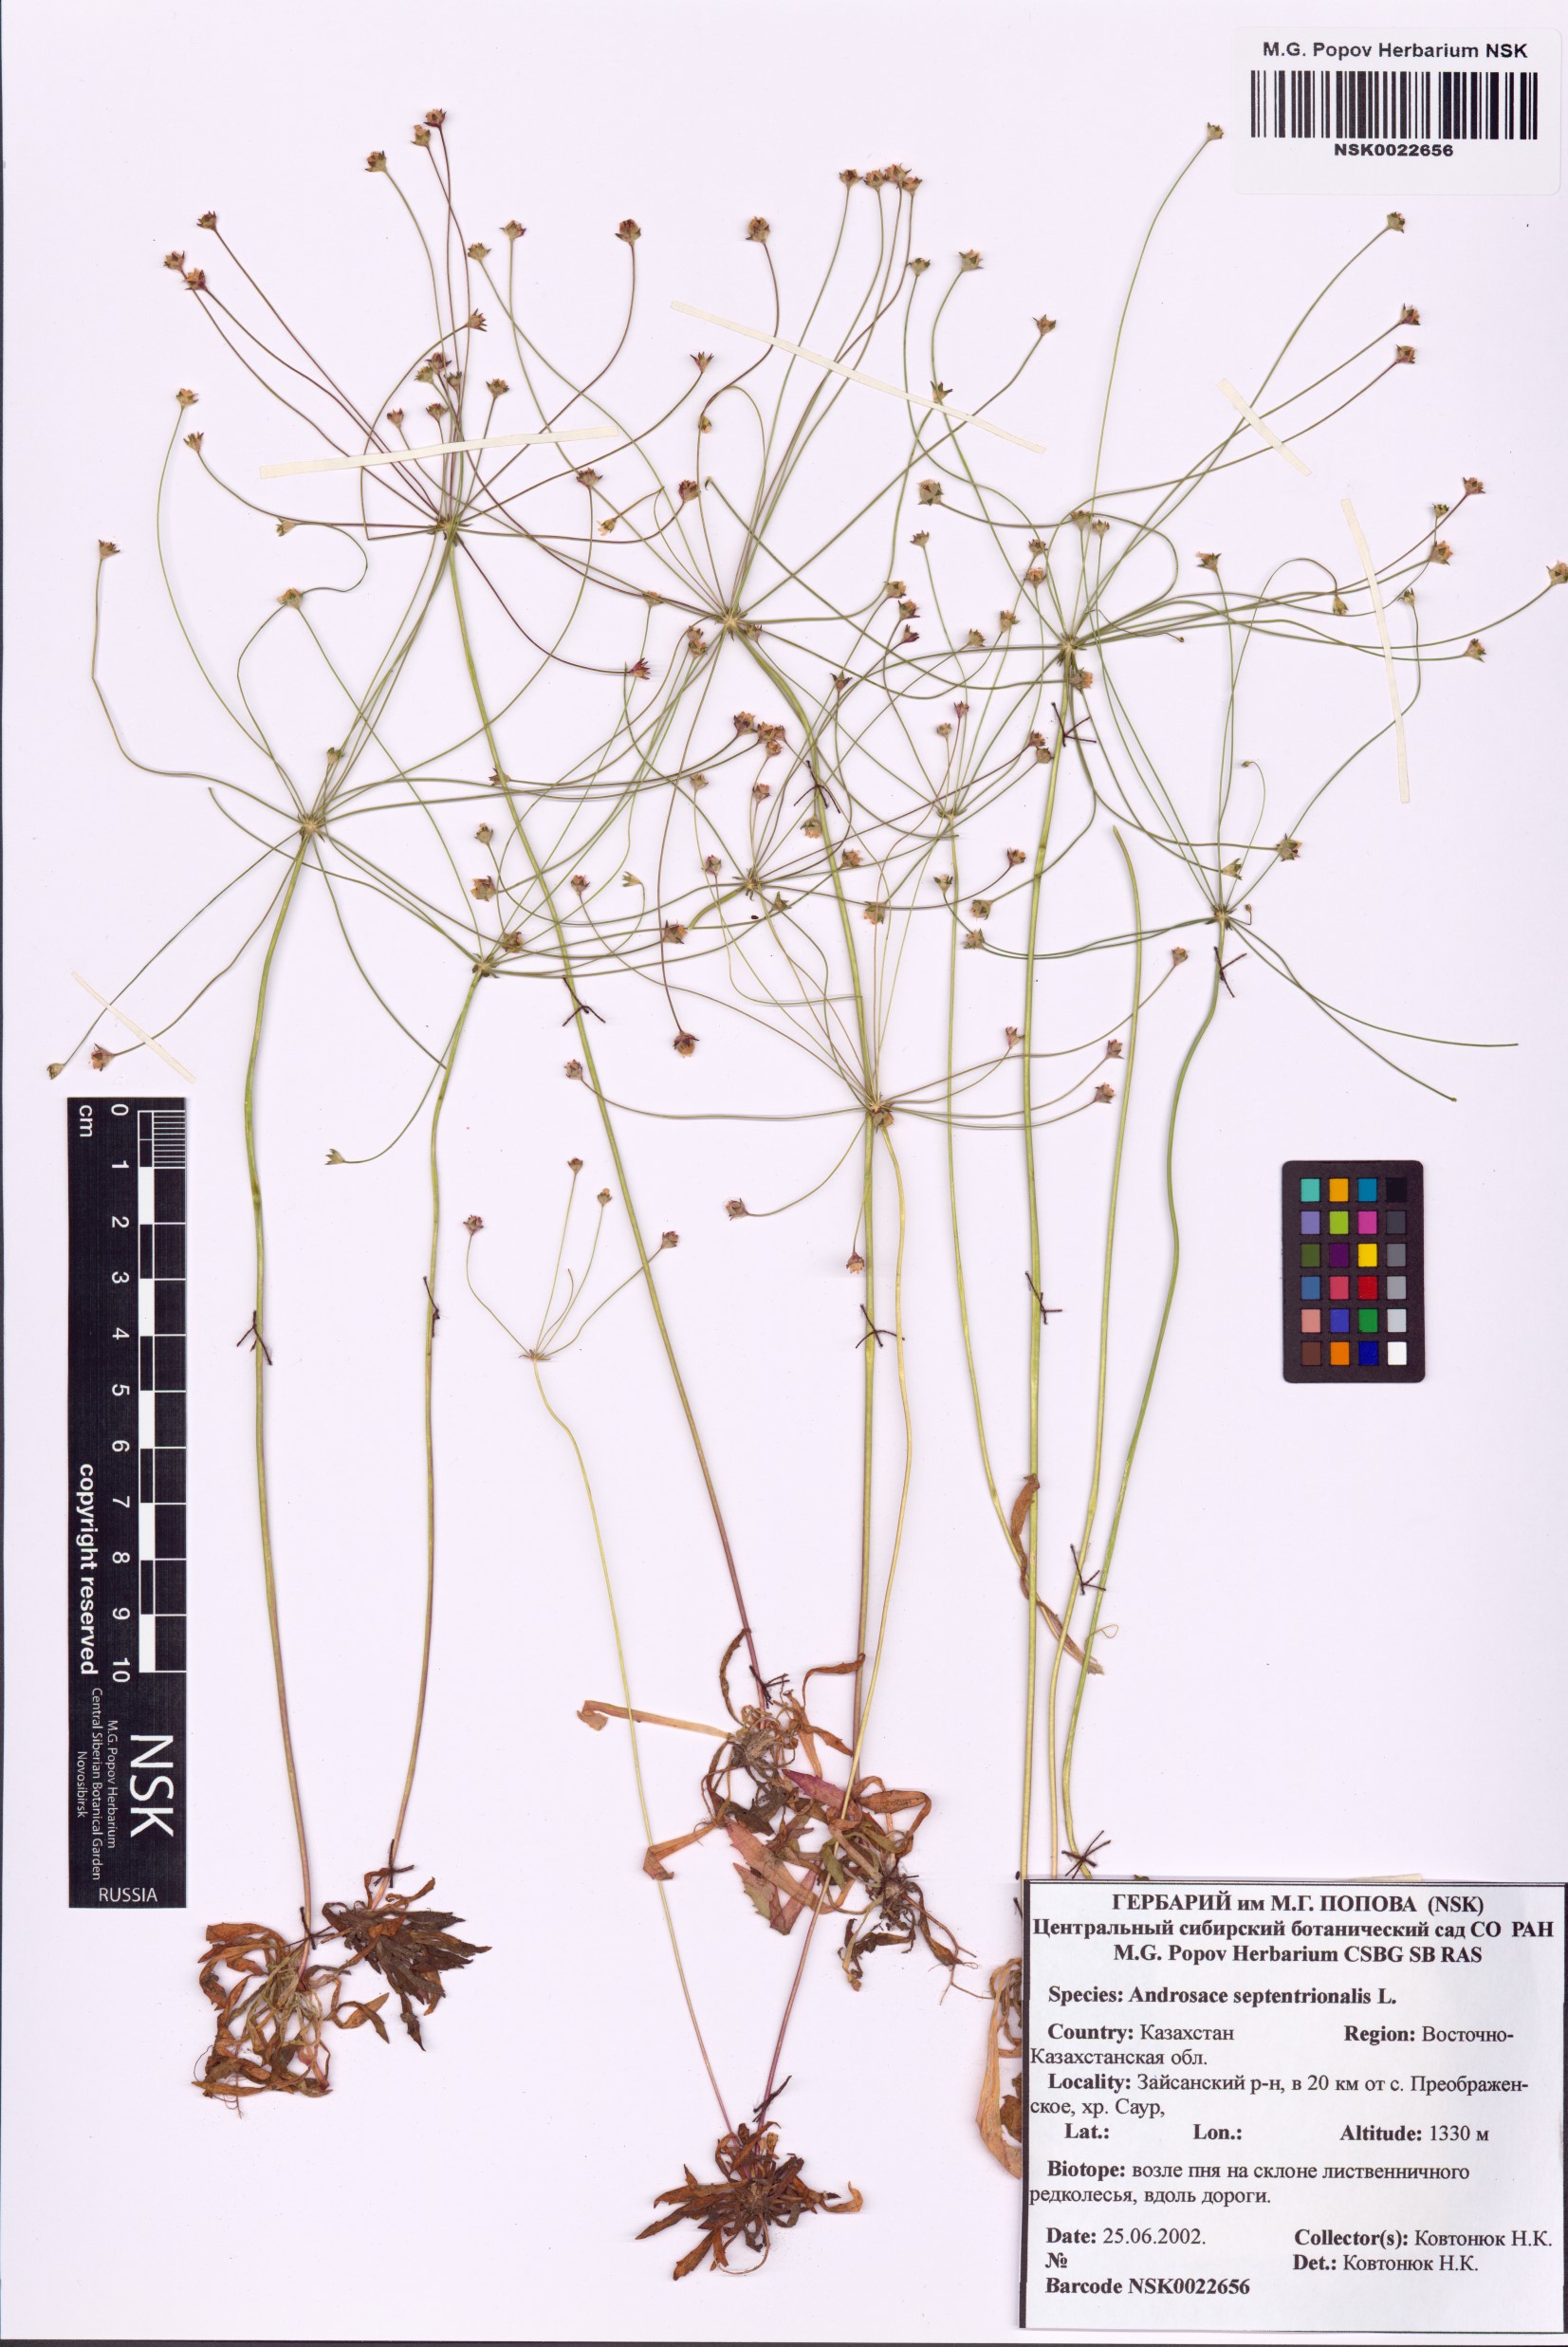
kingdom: Plantae
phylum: Tracheophyta
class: Magnoliopsida
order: Ericales
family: Primulaceae
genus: Androsace
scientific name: Androsace septentrionalis
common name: Hairy northern fairy-candelabra
